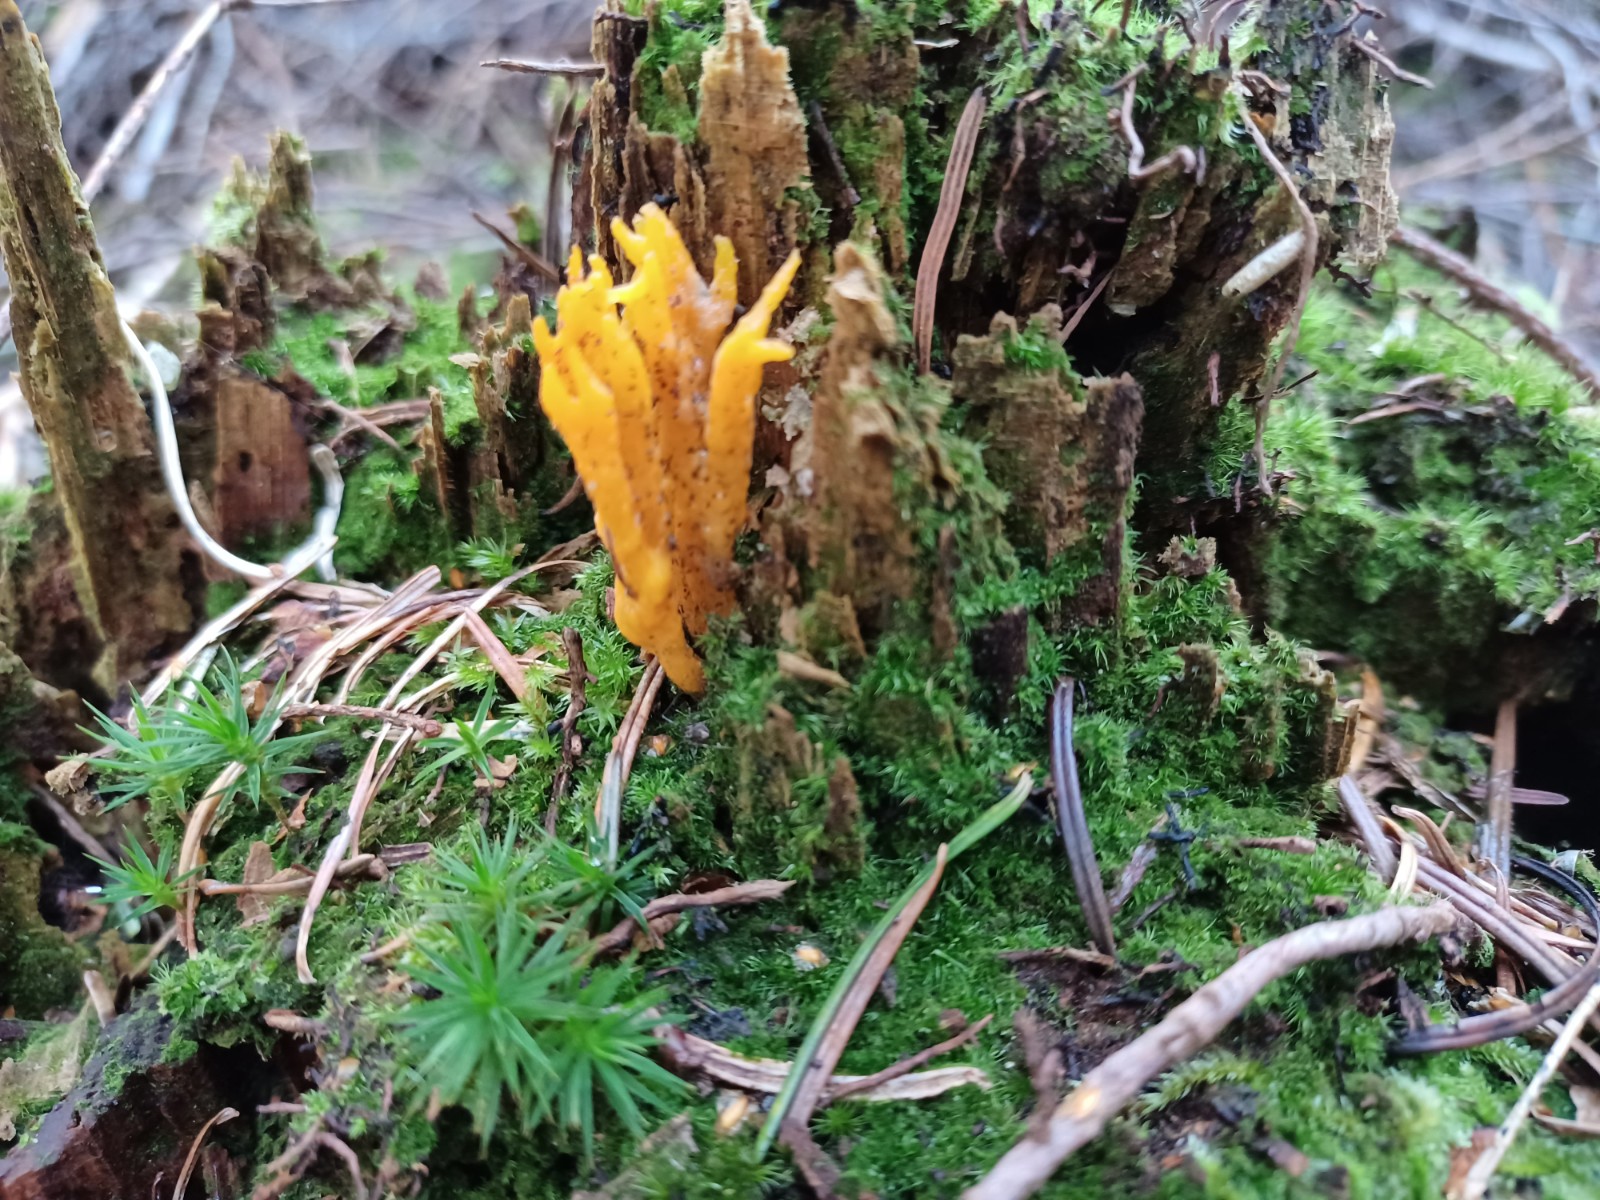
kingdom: Fungi
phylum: Basidiomycota
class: Dacrymycetes
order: Dacrymycetales
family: Dacrymycetaceae
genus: Calocera
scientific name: Calocera viscosa
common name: almindelig guldgaffel
